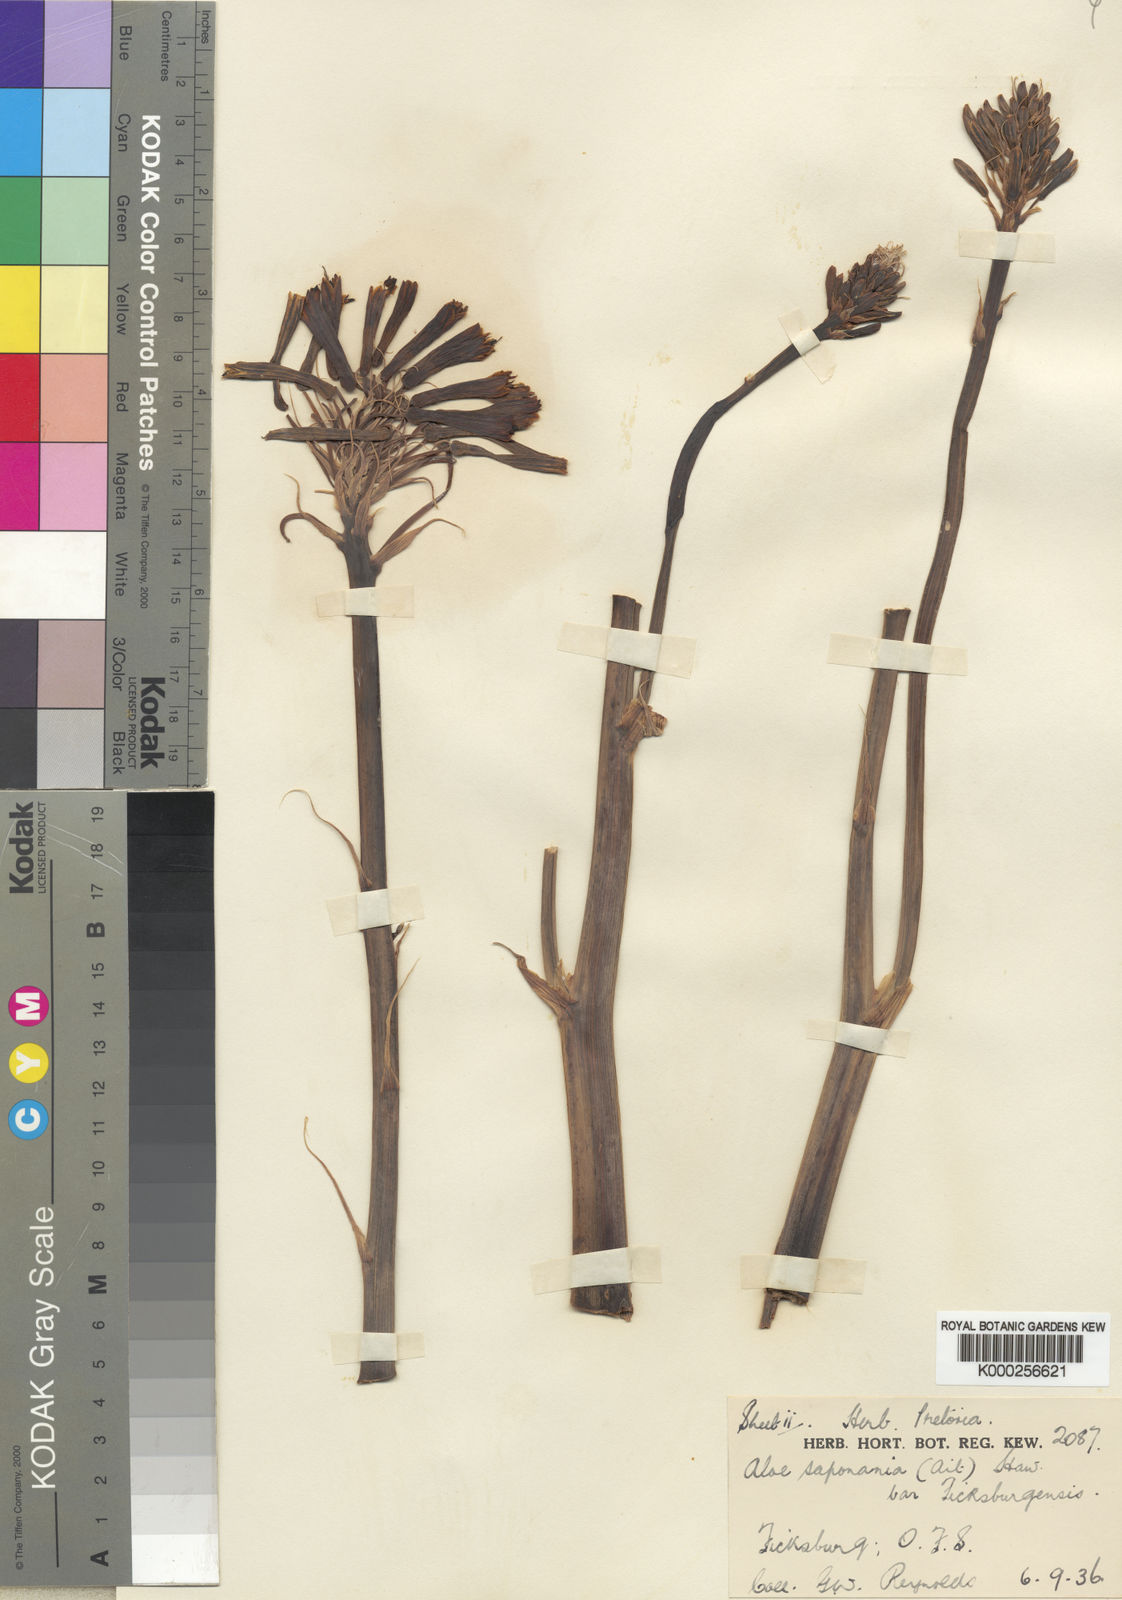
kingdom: Plantae
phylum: Tracheophyta
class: Liliopsida
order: Asparagales
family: Asphodelaceae
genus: Aloe
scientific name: Aloe maculata
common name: Broadleaf aloe
